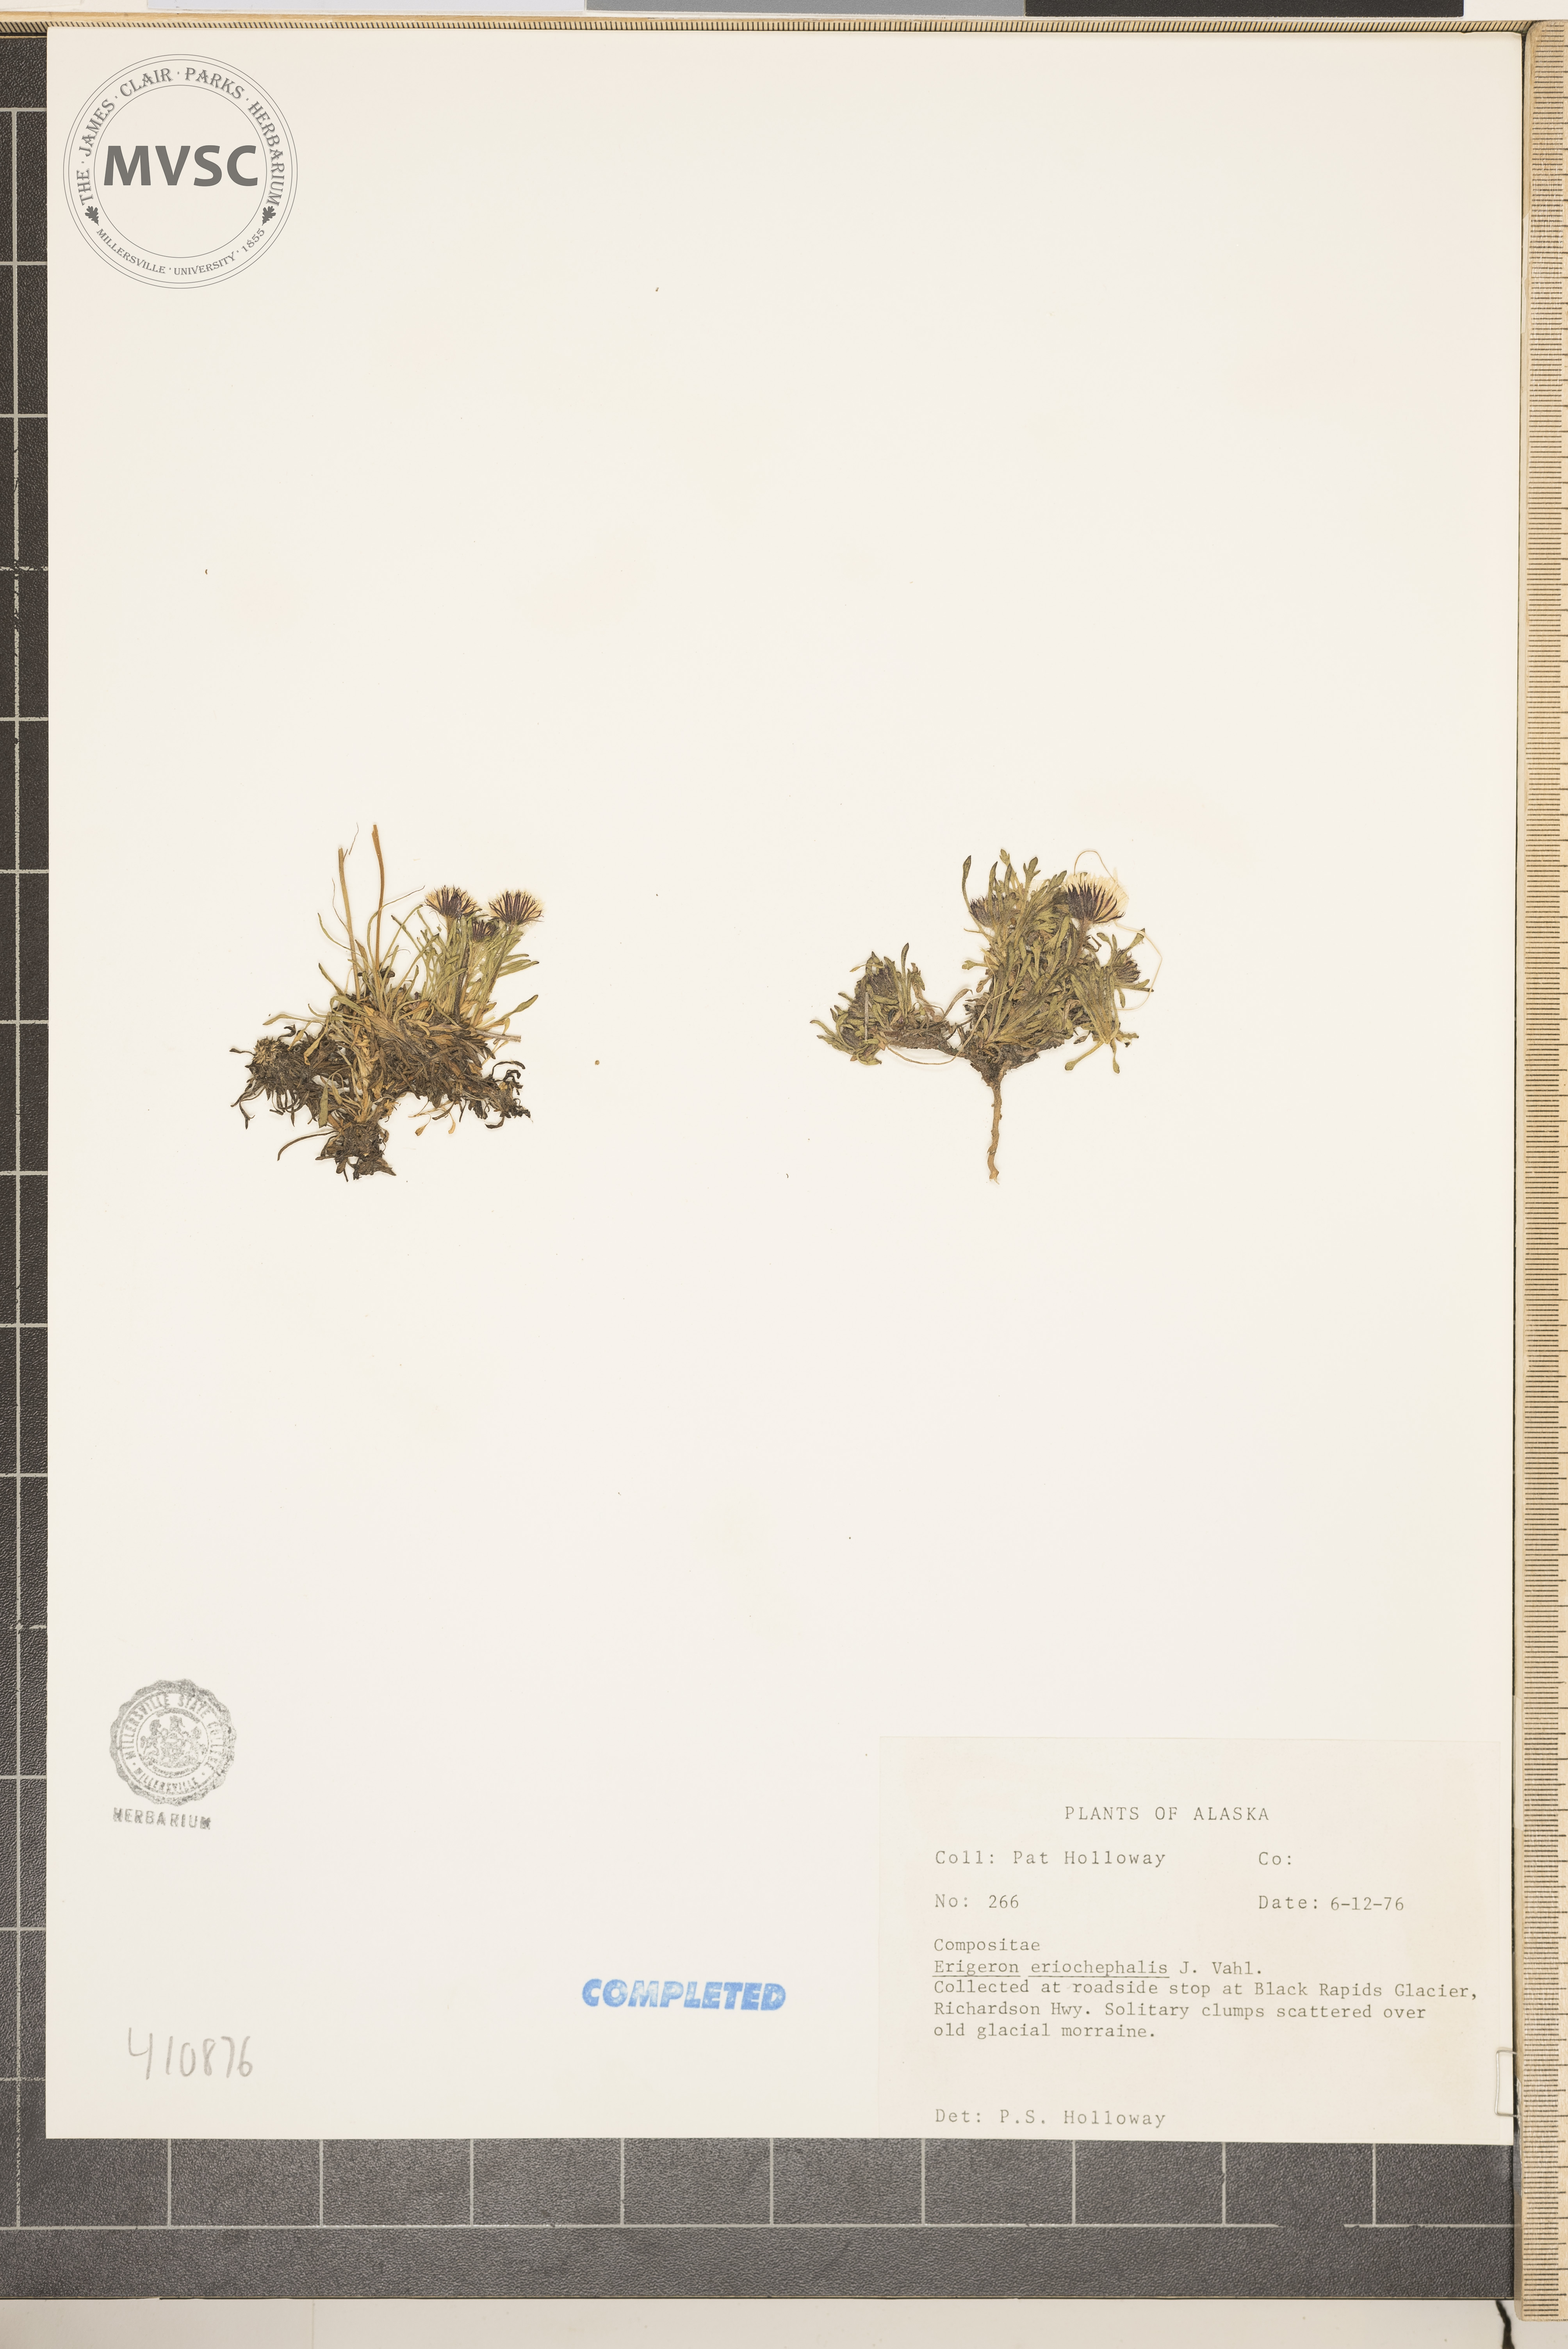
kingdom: Plantae
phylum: Tracheophyta
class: Magnoliopsida
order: Asterales
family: Asteraceae
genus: Erigeron
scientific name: Erigeron eriocephalus
